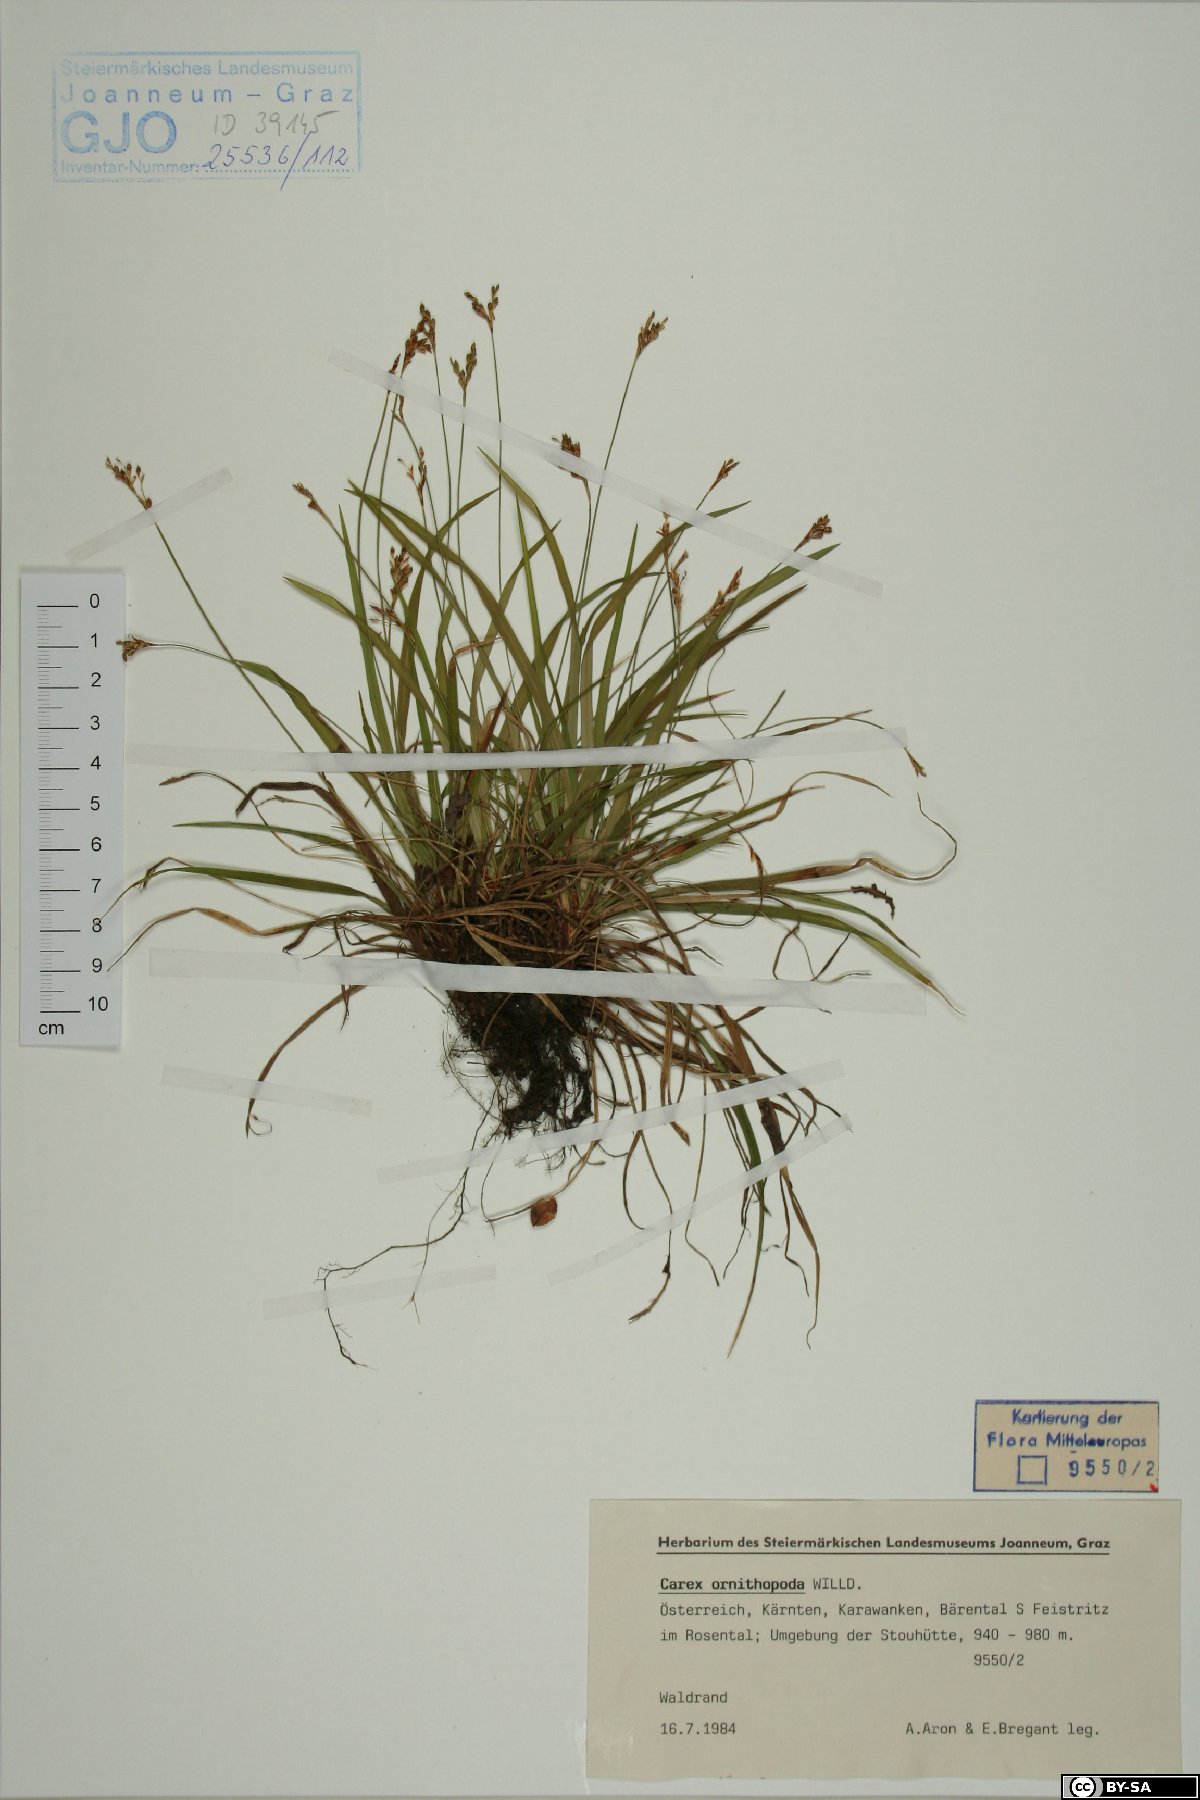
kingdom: Plantae
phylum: Tracheophyta
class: Liliopsida
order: Poales
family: Cyperaceae
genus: Carex
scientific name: Carex ornithopoda
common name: Bird's-foot sedge
